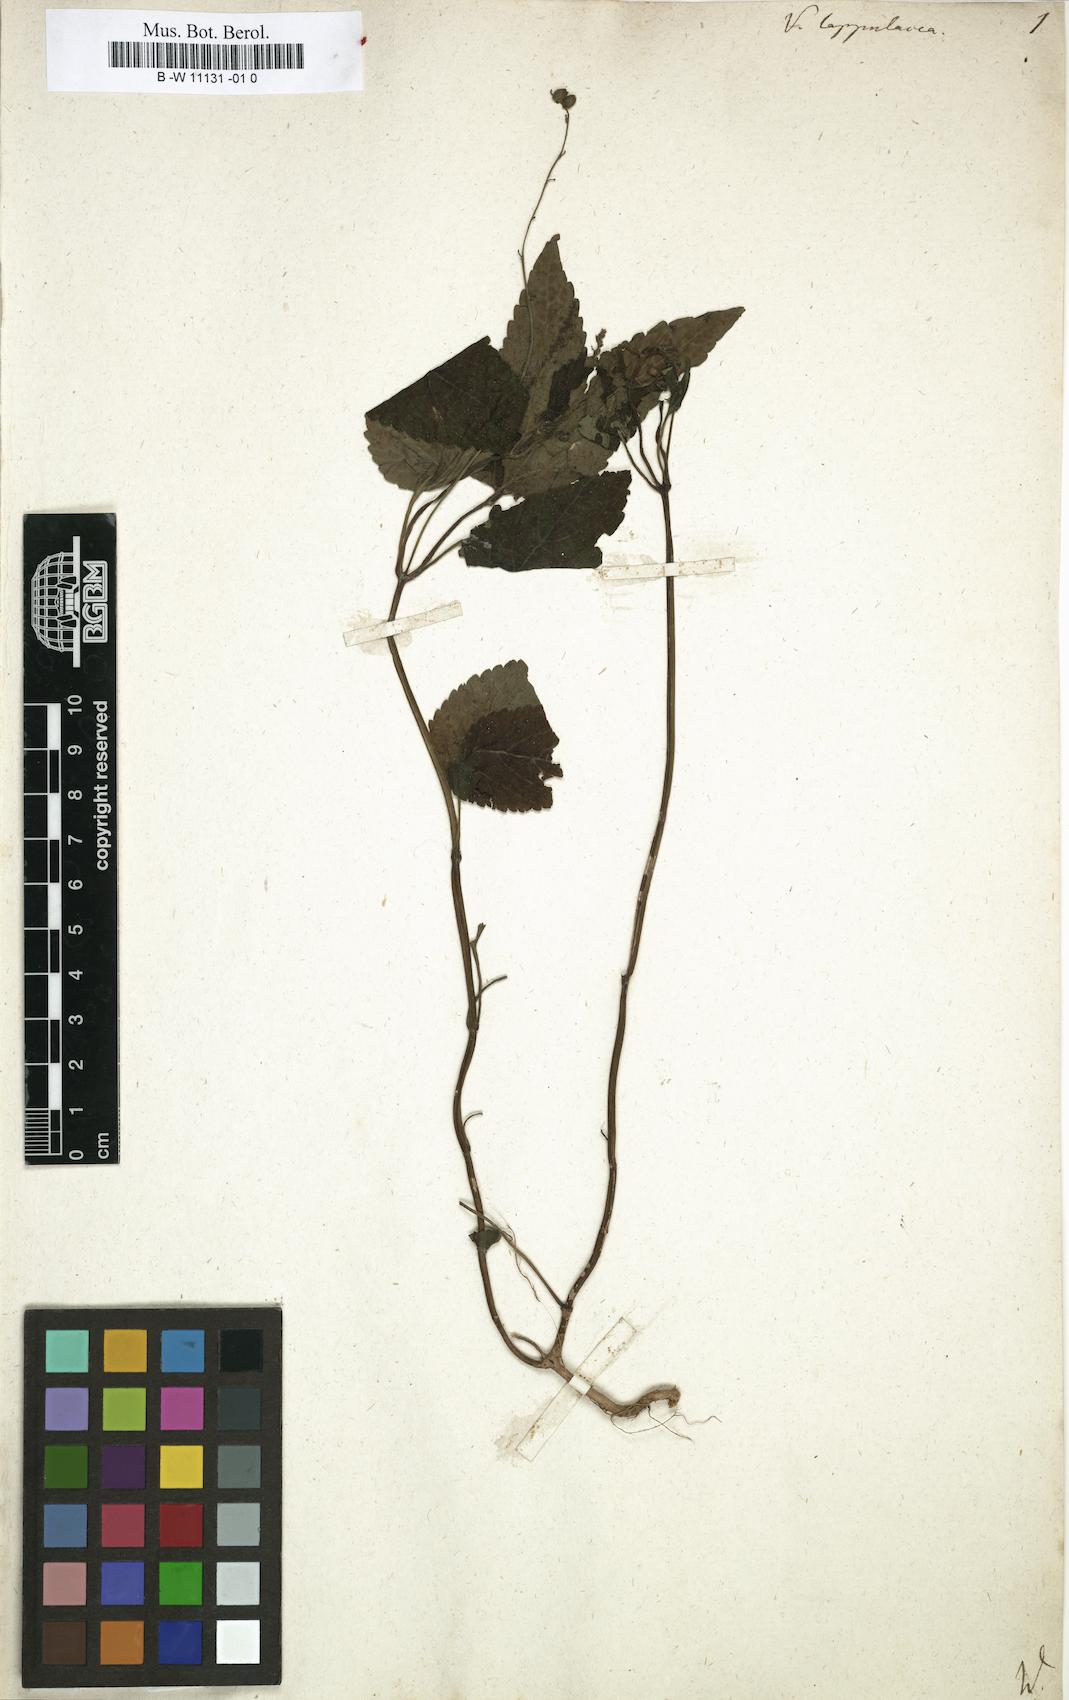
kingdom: Plantae
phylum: Tracheophyta
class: Magnoliopsida
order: Lamiales
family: Verbenaceae
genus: Priva
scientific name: Priva lappulacea
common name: Fasten-'pon-coat
